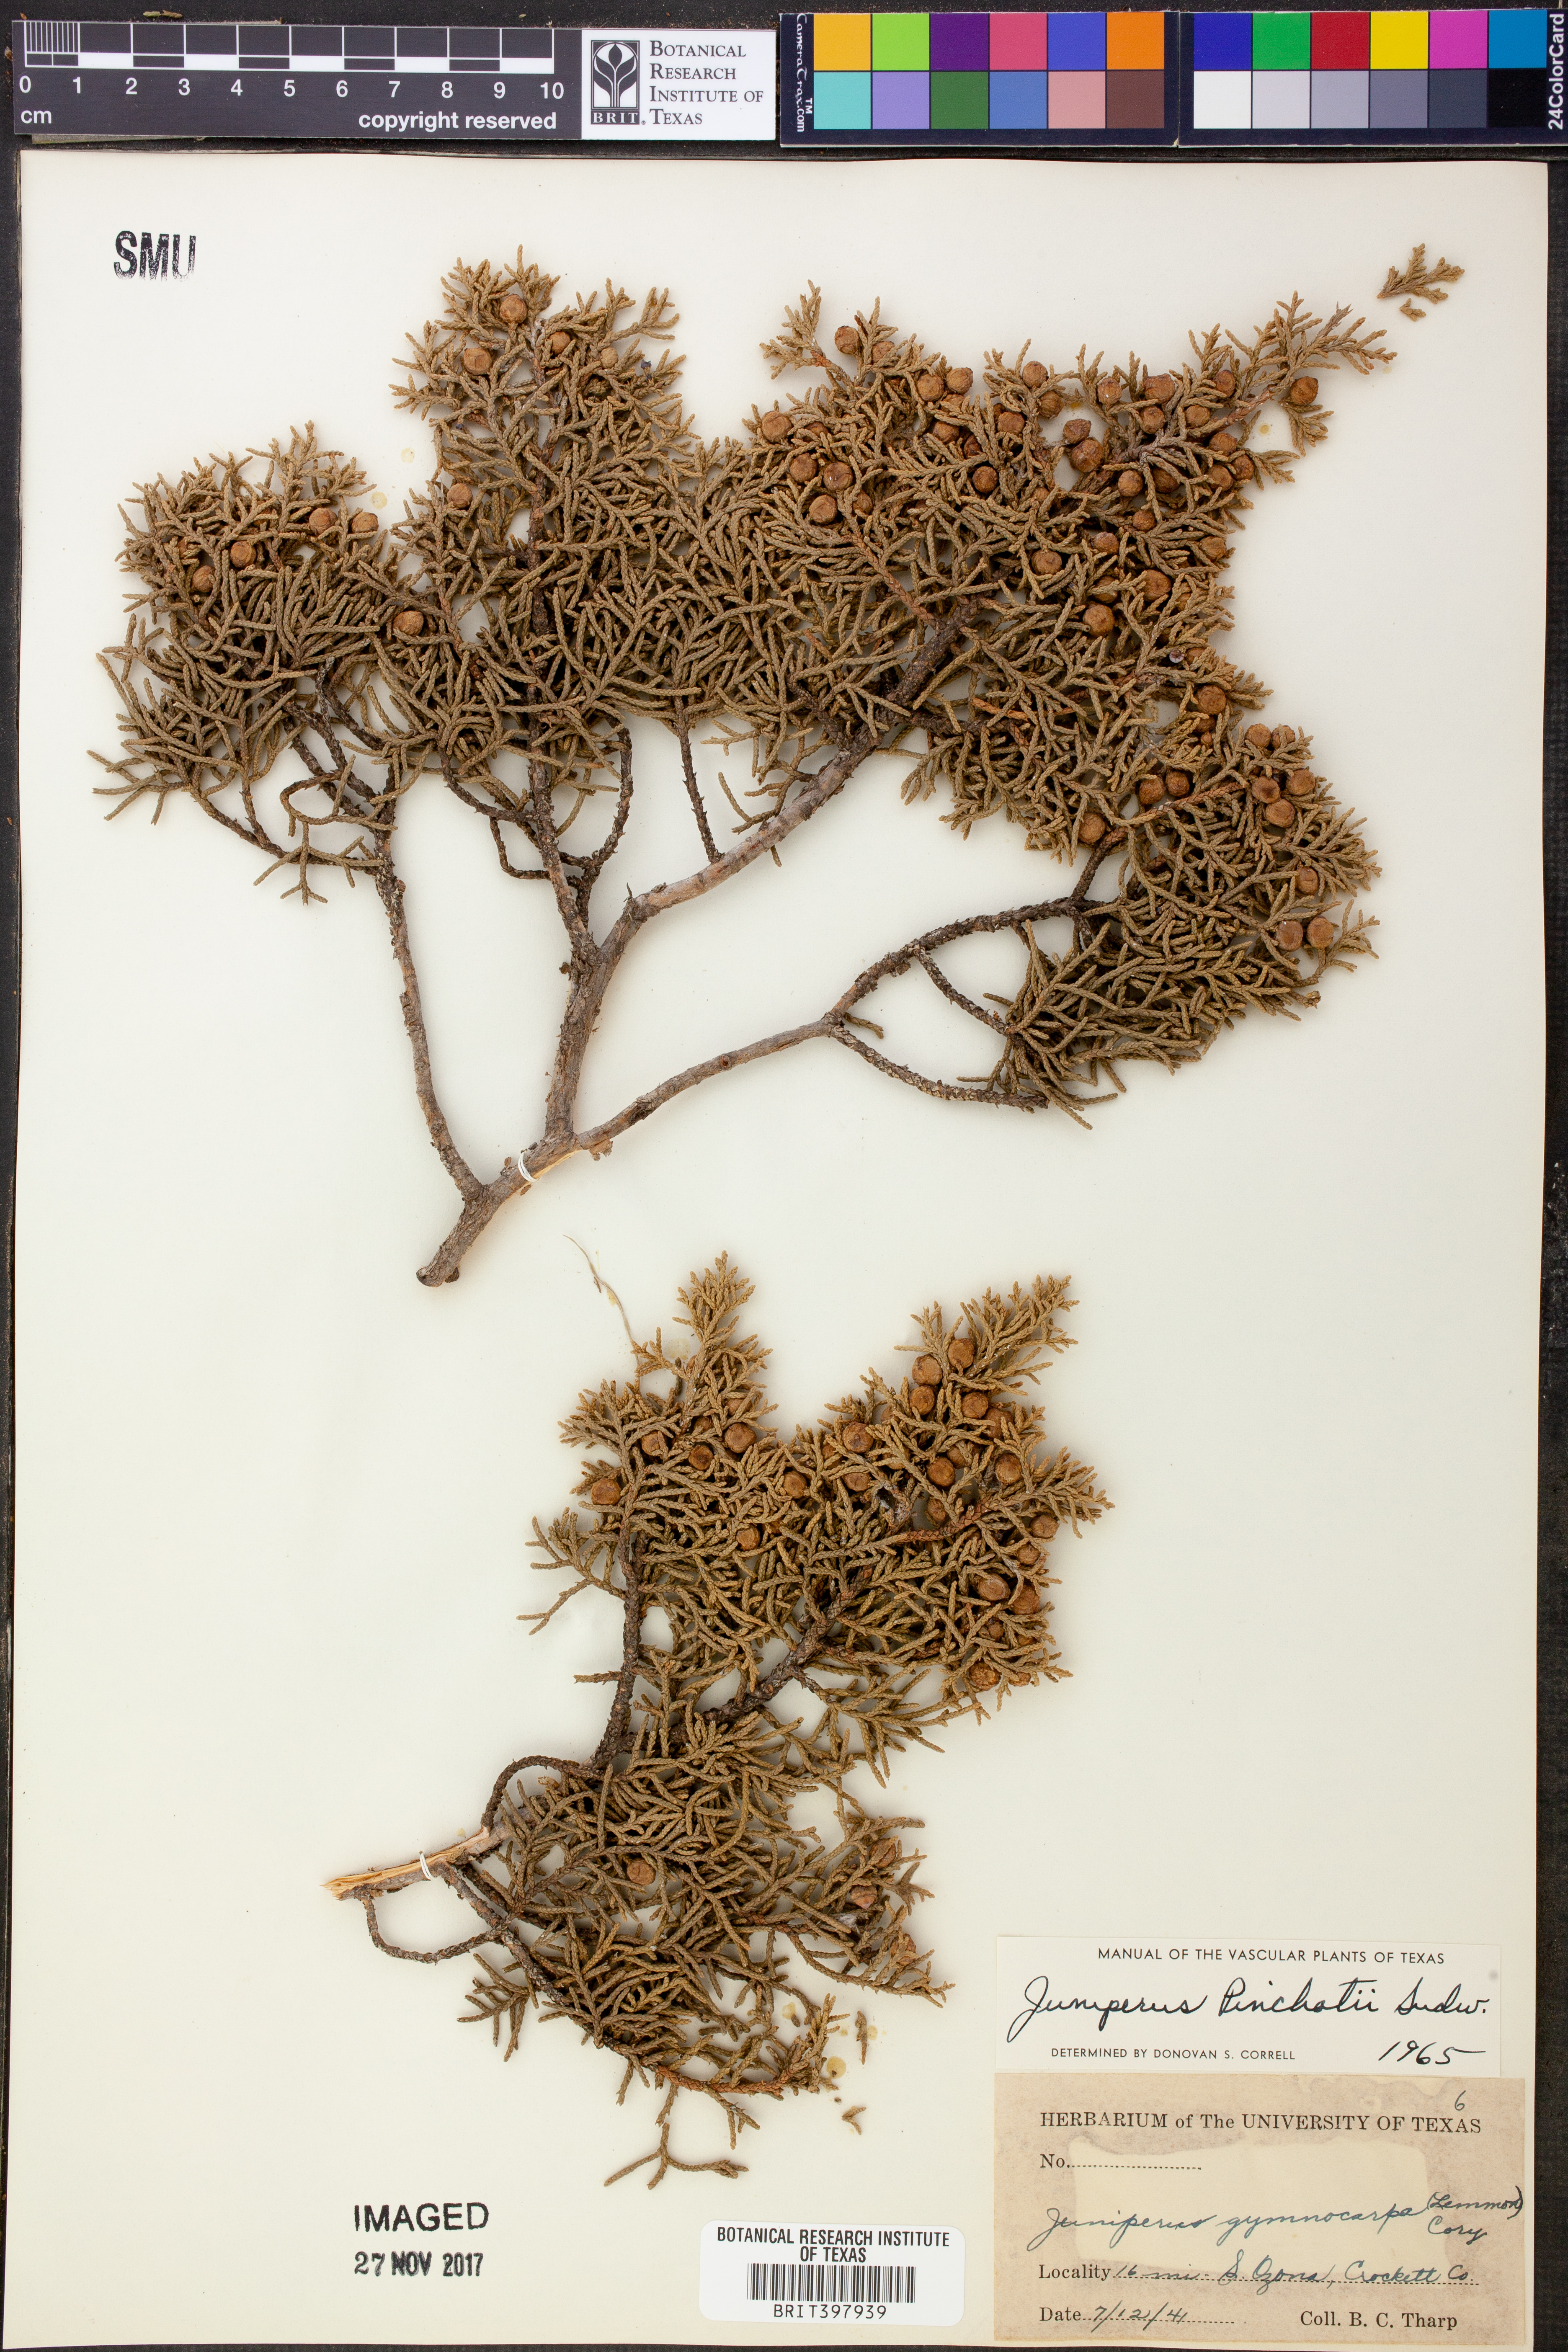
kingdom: Plantae
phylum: Tracheophyta
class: Pinopsida
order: Pinales
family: Cupressaceae
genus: Juniperus
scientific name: Juniperus pinchotii
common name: Pinchot juniper
